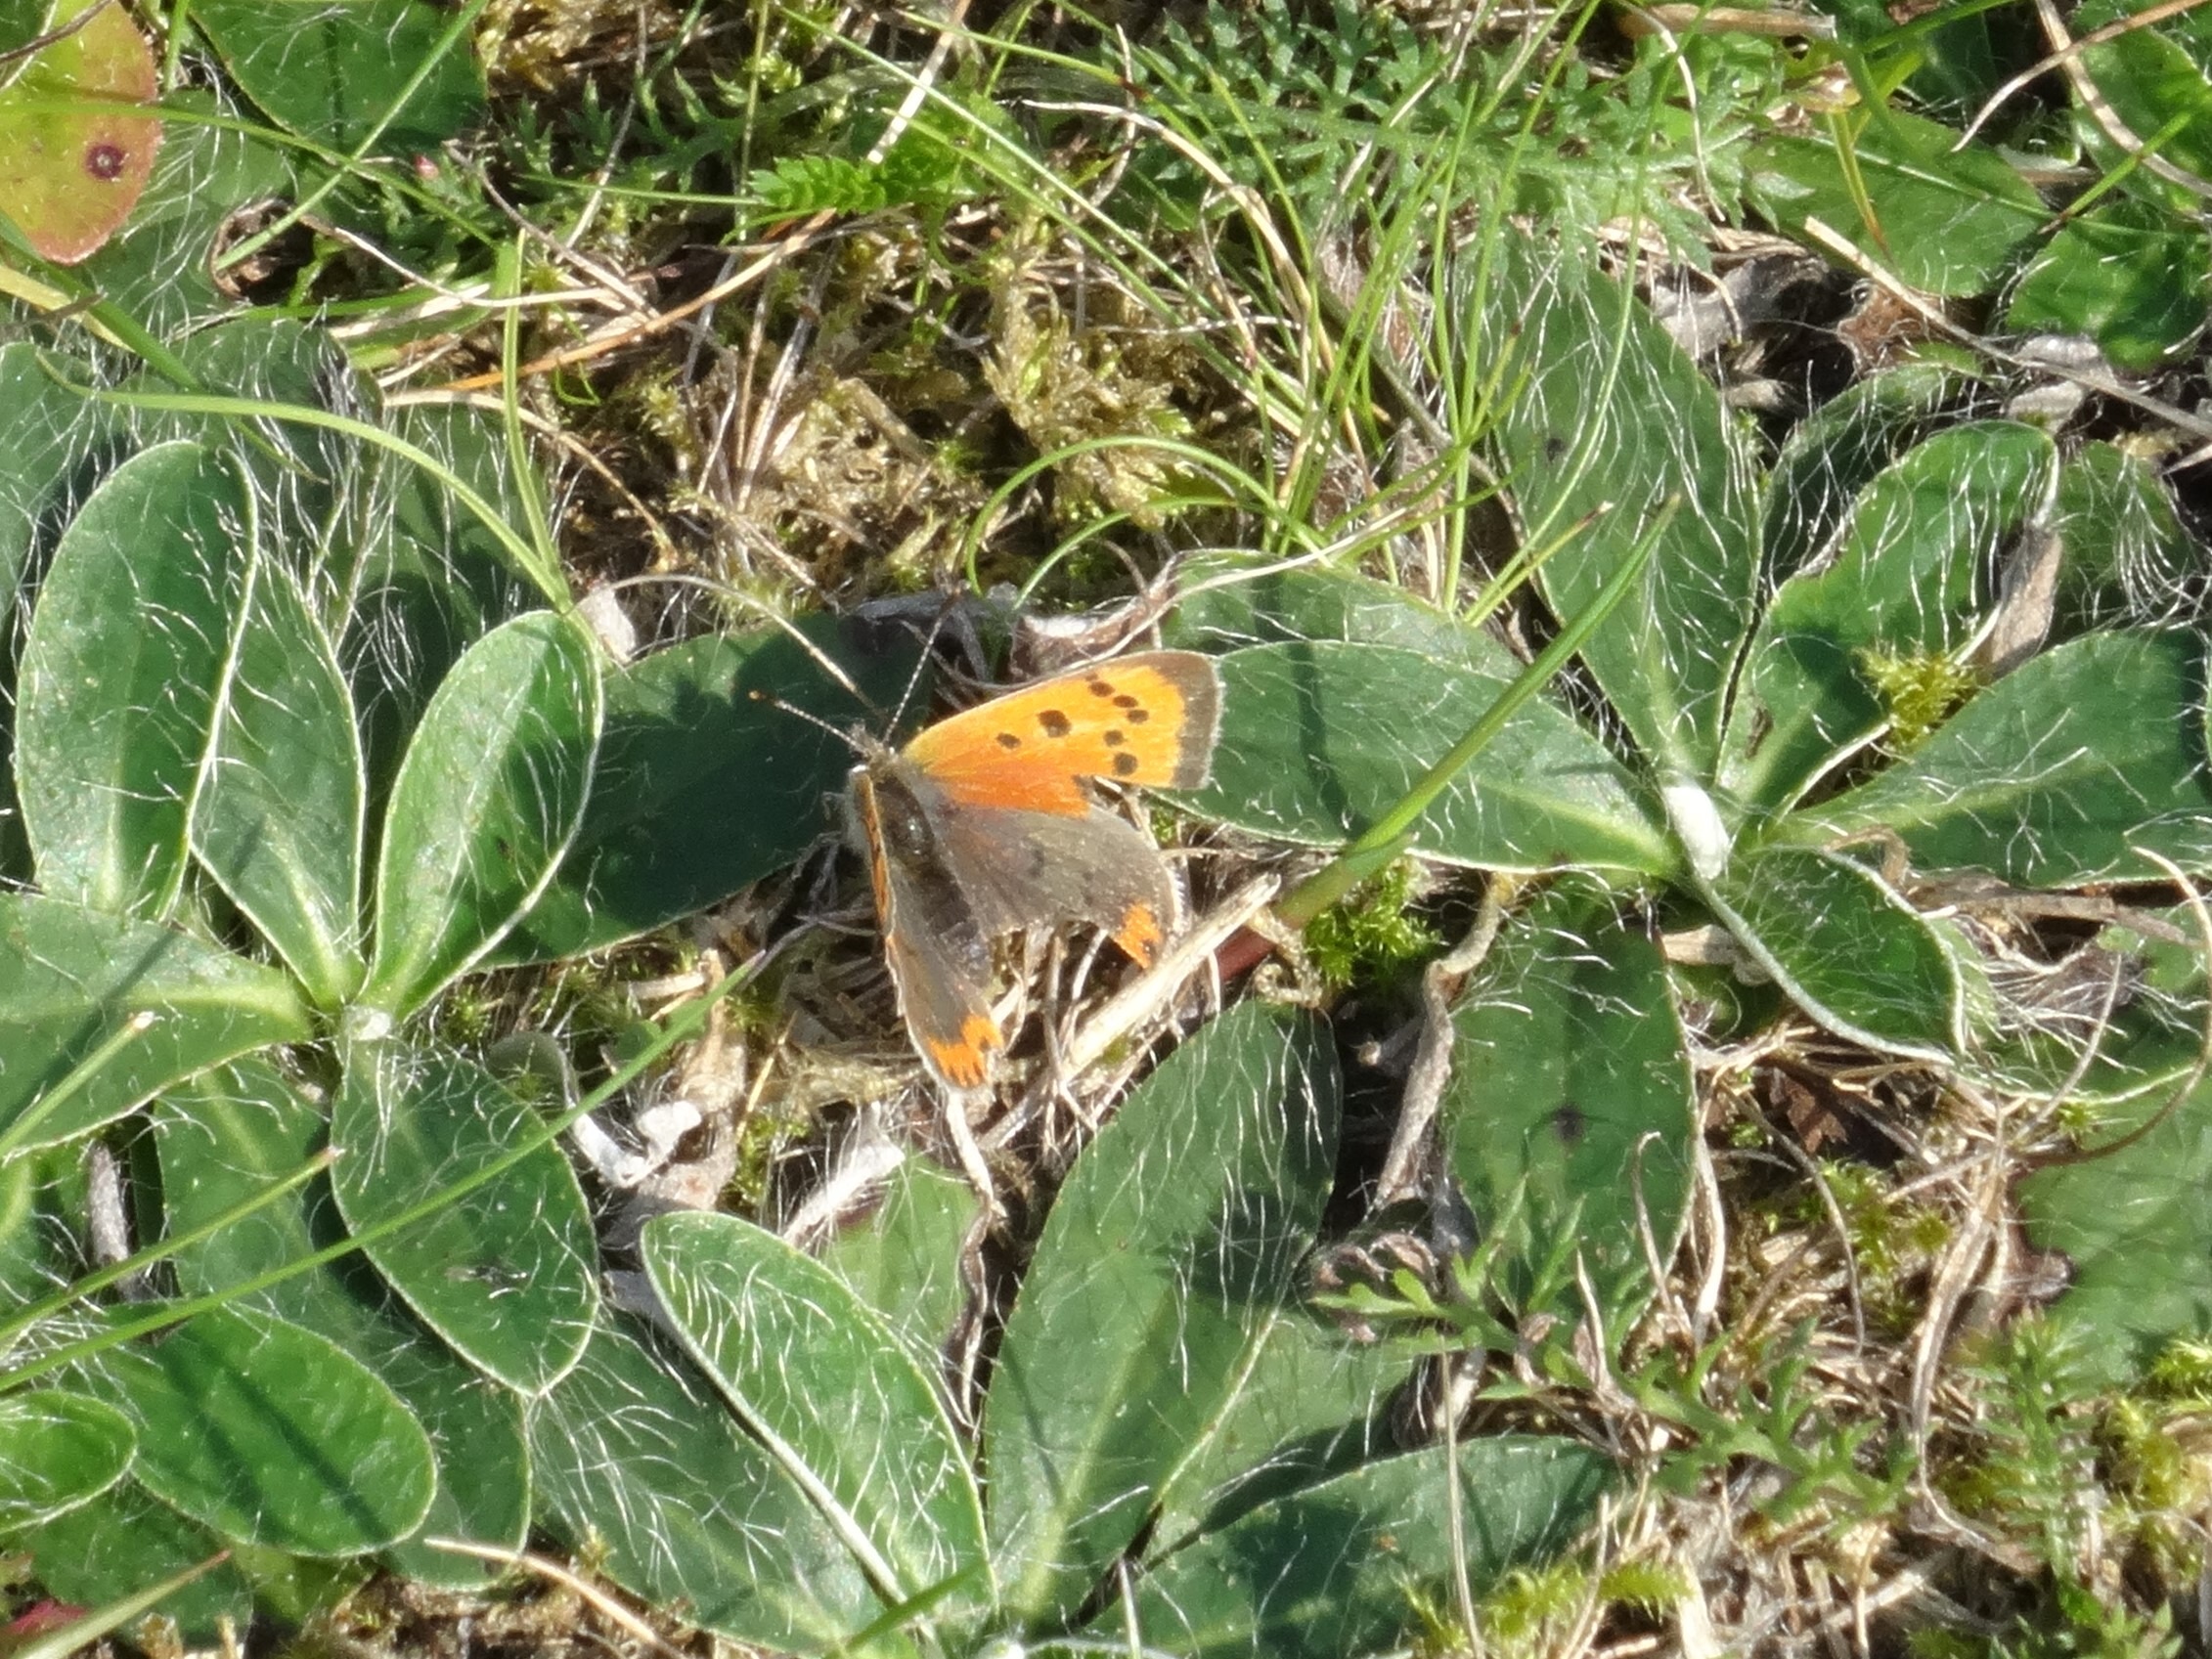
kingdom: Animalia
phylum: Arthropoda
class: Insecta
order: Lepidoptera
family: Lycaenidae
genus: Lycaena
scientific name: Lycaena phlaeas
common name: Lille ildfugl
